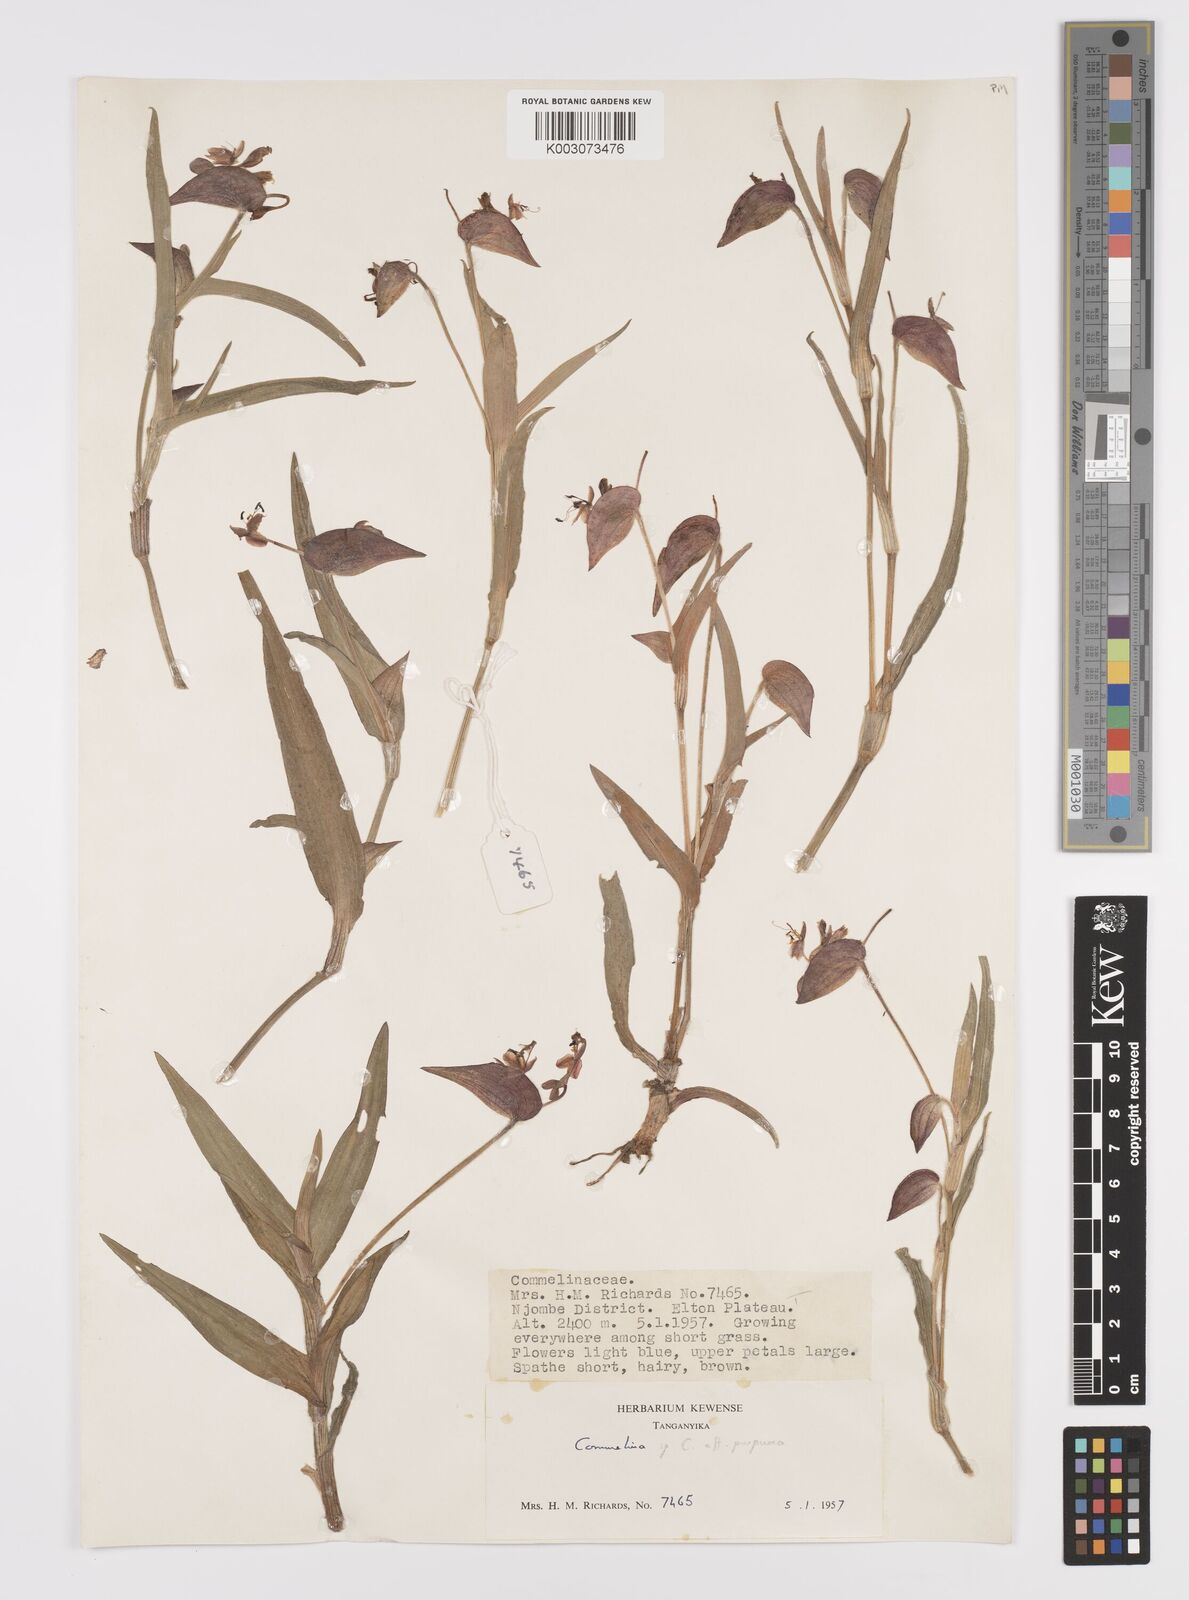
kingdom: Plantae
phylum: Tracheophyta
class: Liliopsida
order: Commelinales
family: Commelinaceae
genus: Commelina
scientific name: Commelina kituloensis
